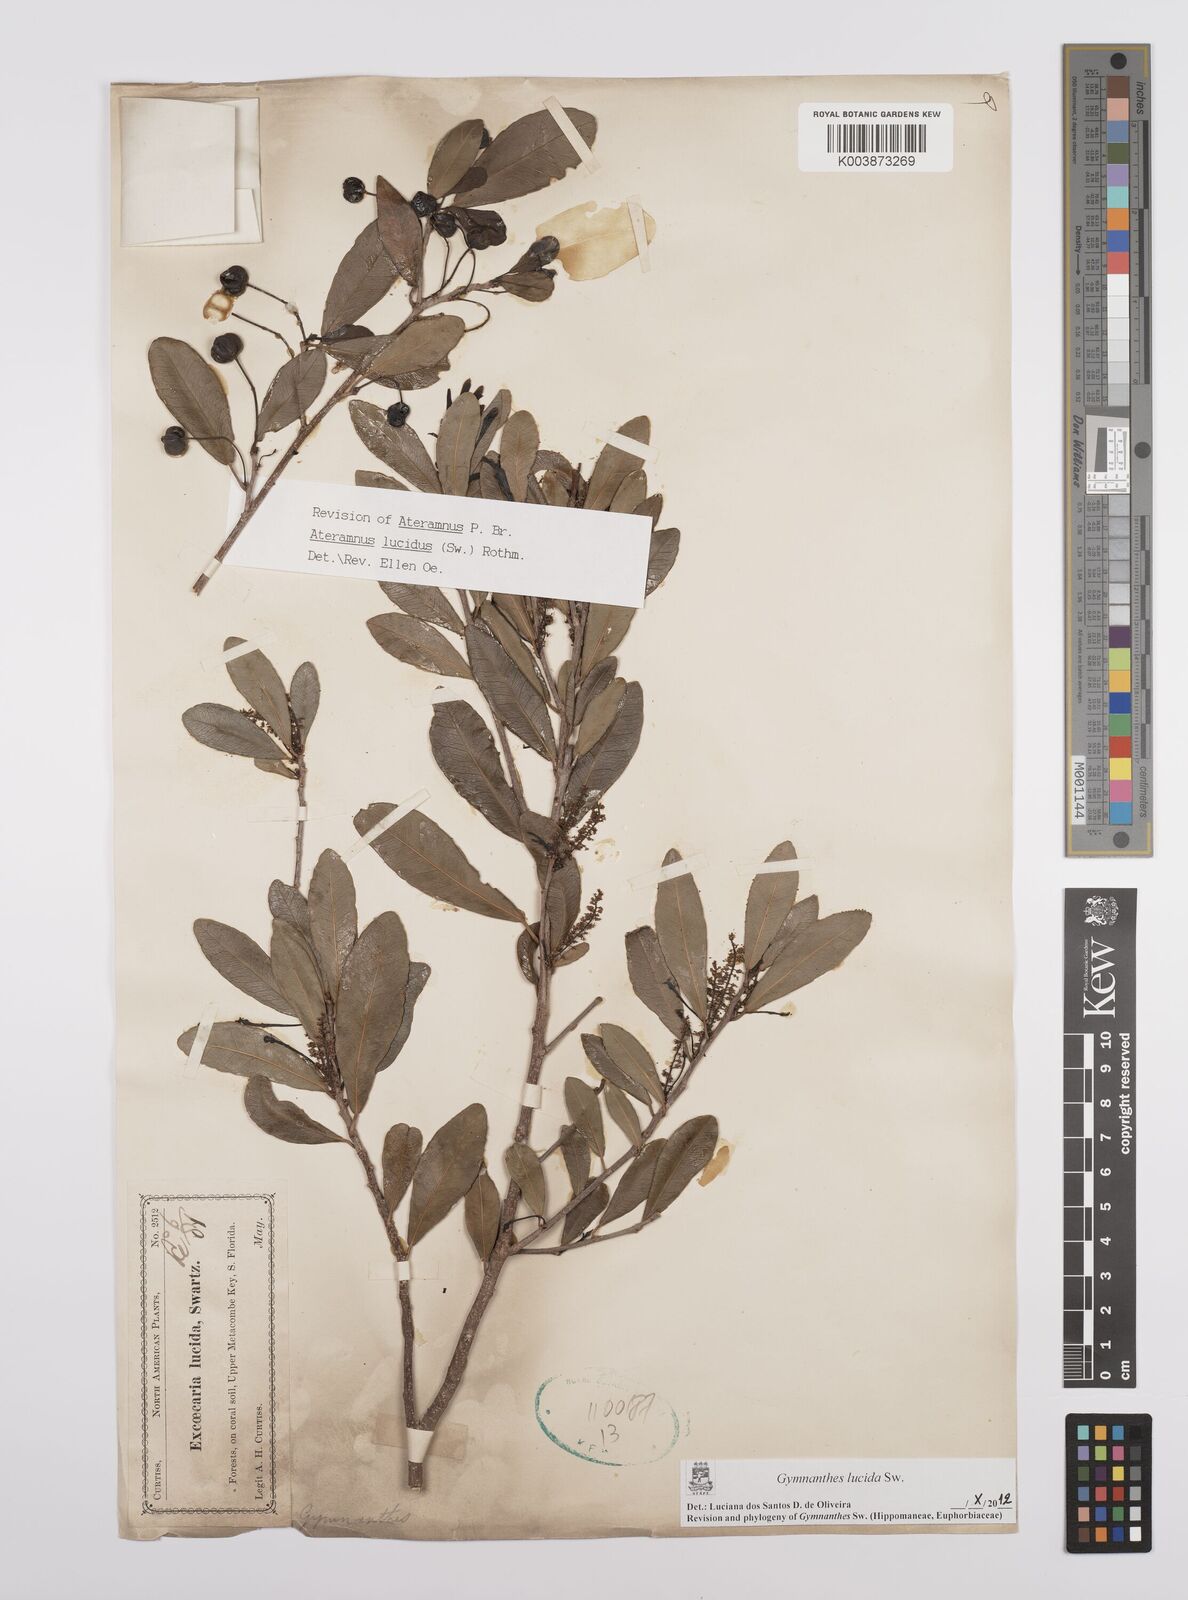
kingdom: Plantae
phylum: Tracheophyta
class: Magnoliopsida
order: Malpighiales
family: Euphorbiaceae
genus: Gymnanthes
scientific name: Gymnanthes lucida
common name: Oysterwood
